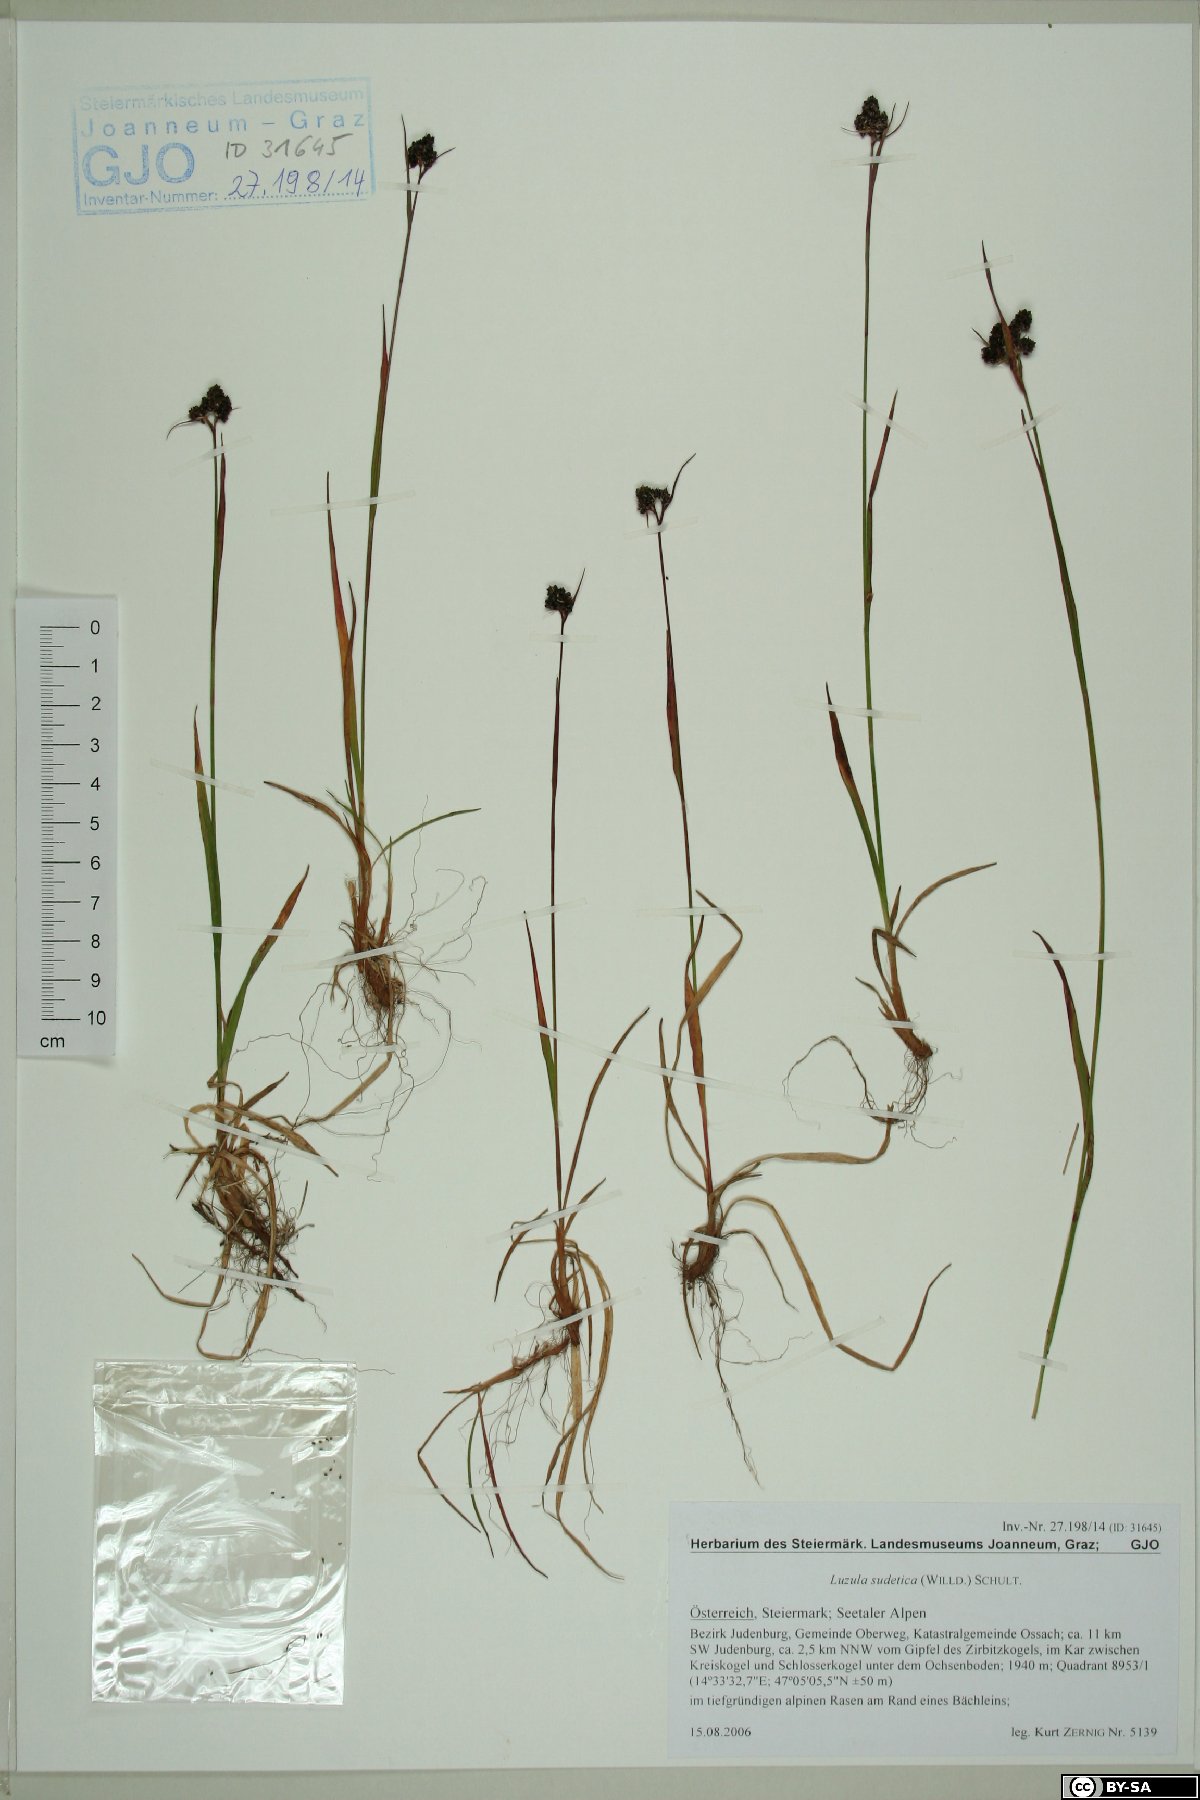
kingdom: Plantae
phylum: Tracheophyta
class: Liliopsida
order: Poales
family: Juncaceae
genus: Luzula
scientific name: Luzula sudetica
